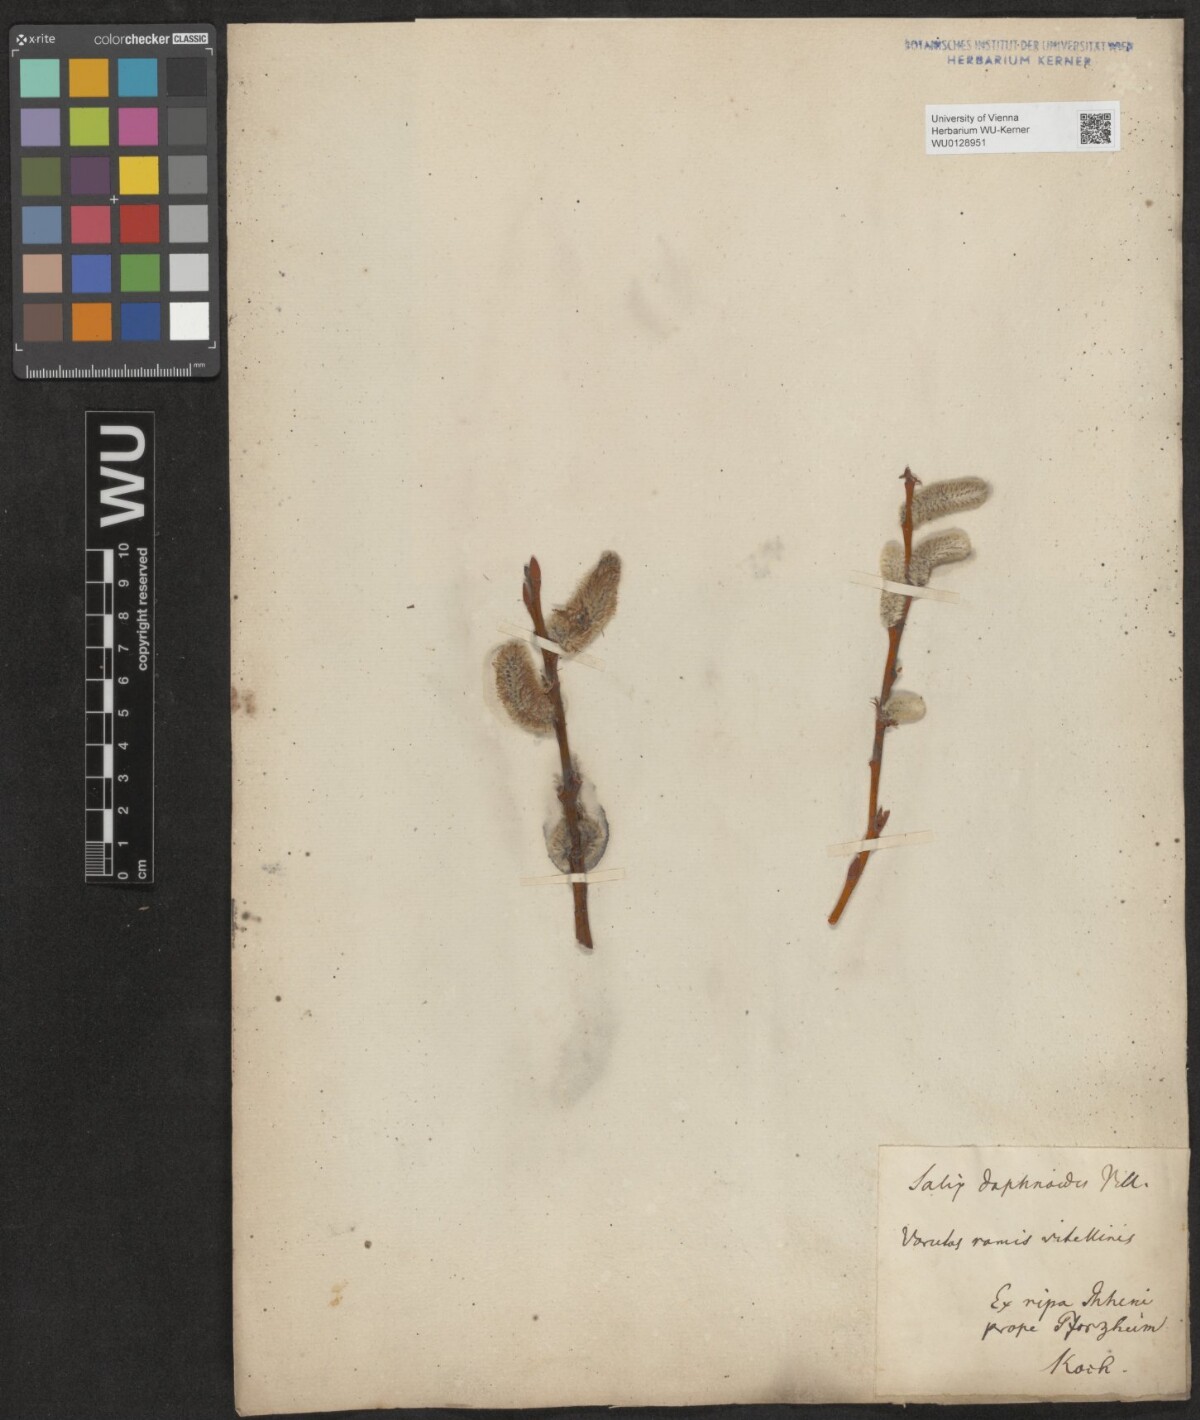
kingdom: Plantae
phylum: Tracheophyta
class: Magnoliopsida
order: Malpighiales
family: Salicaceae
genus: Salix
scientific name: Salix daphnoides
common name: European violet-willow
